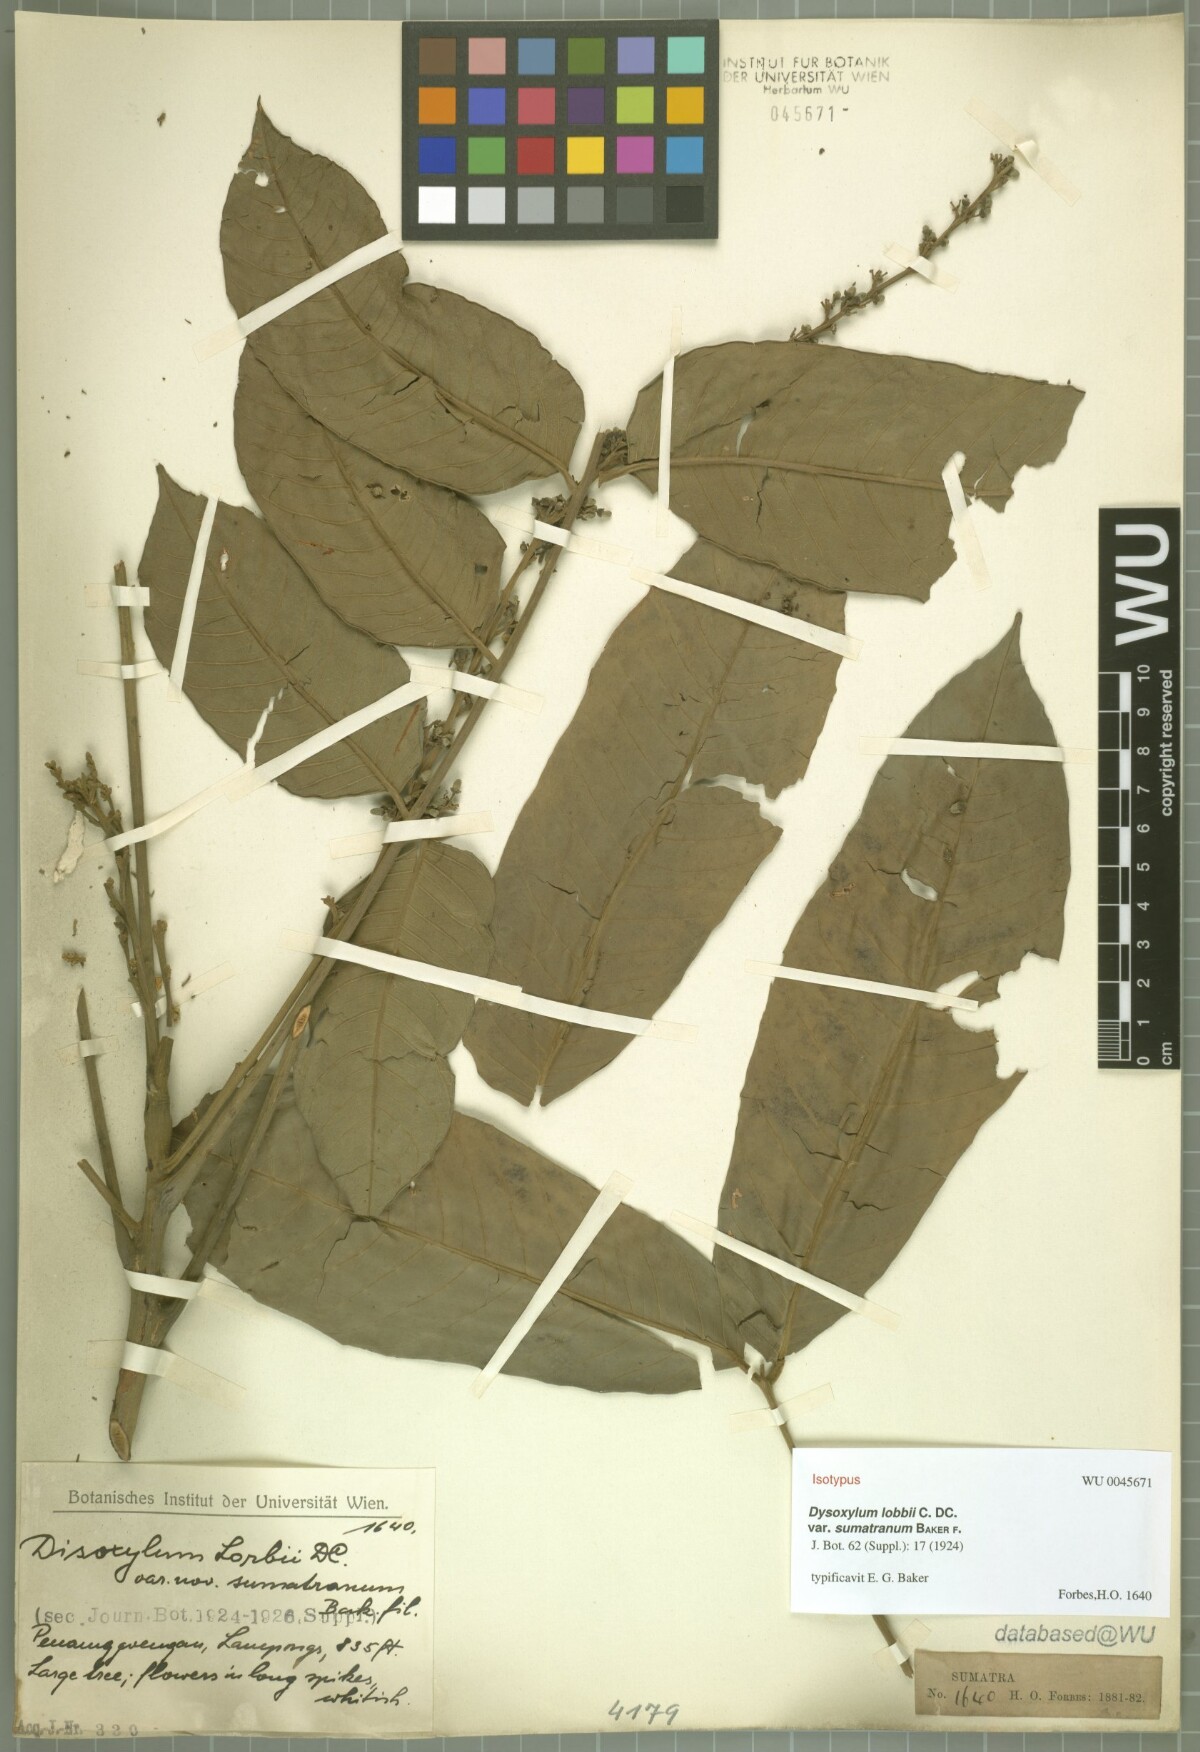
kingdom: Plantae
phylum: Tracheophyta
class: Magnoliopsida
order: Sapindales
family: Meliaceae
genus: Dysoxylum
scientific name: Dysoxylum grande
